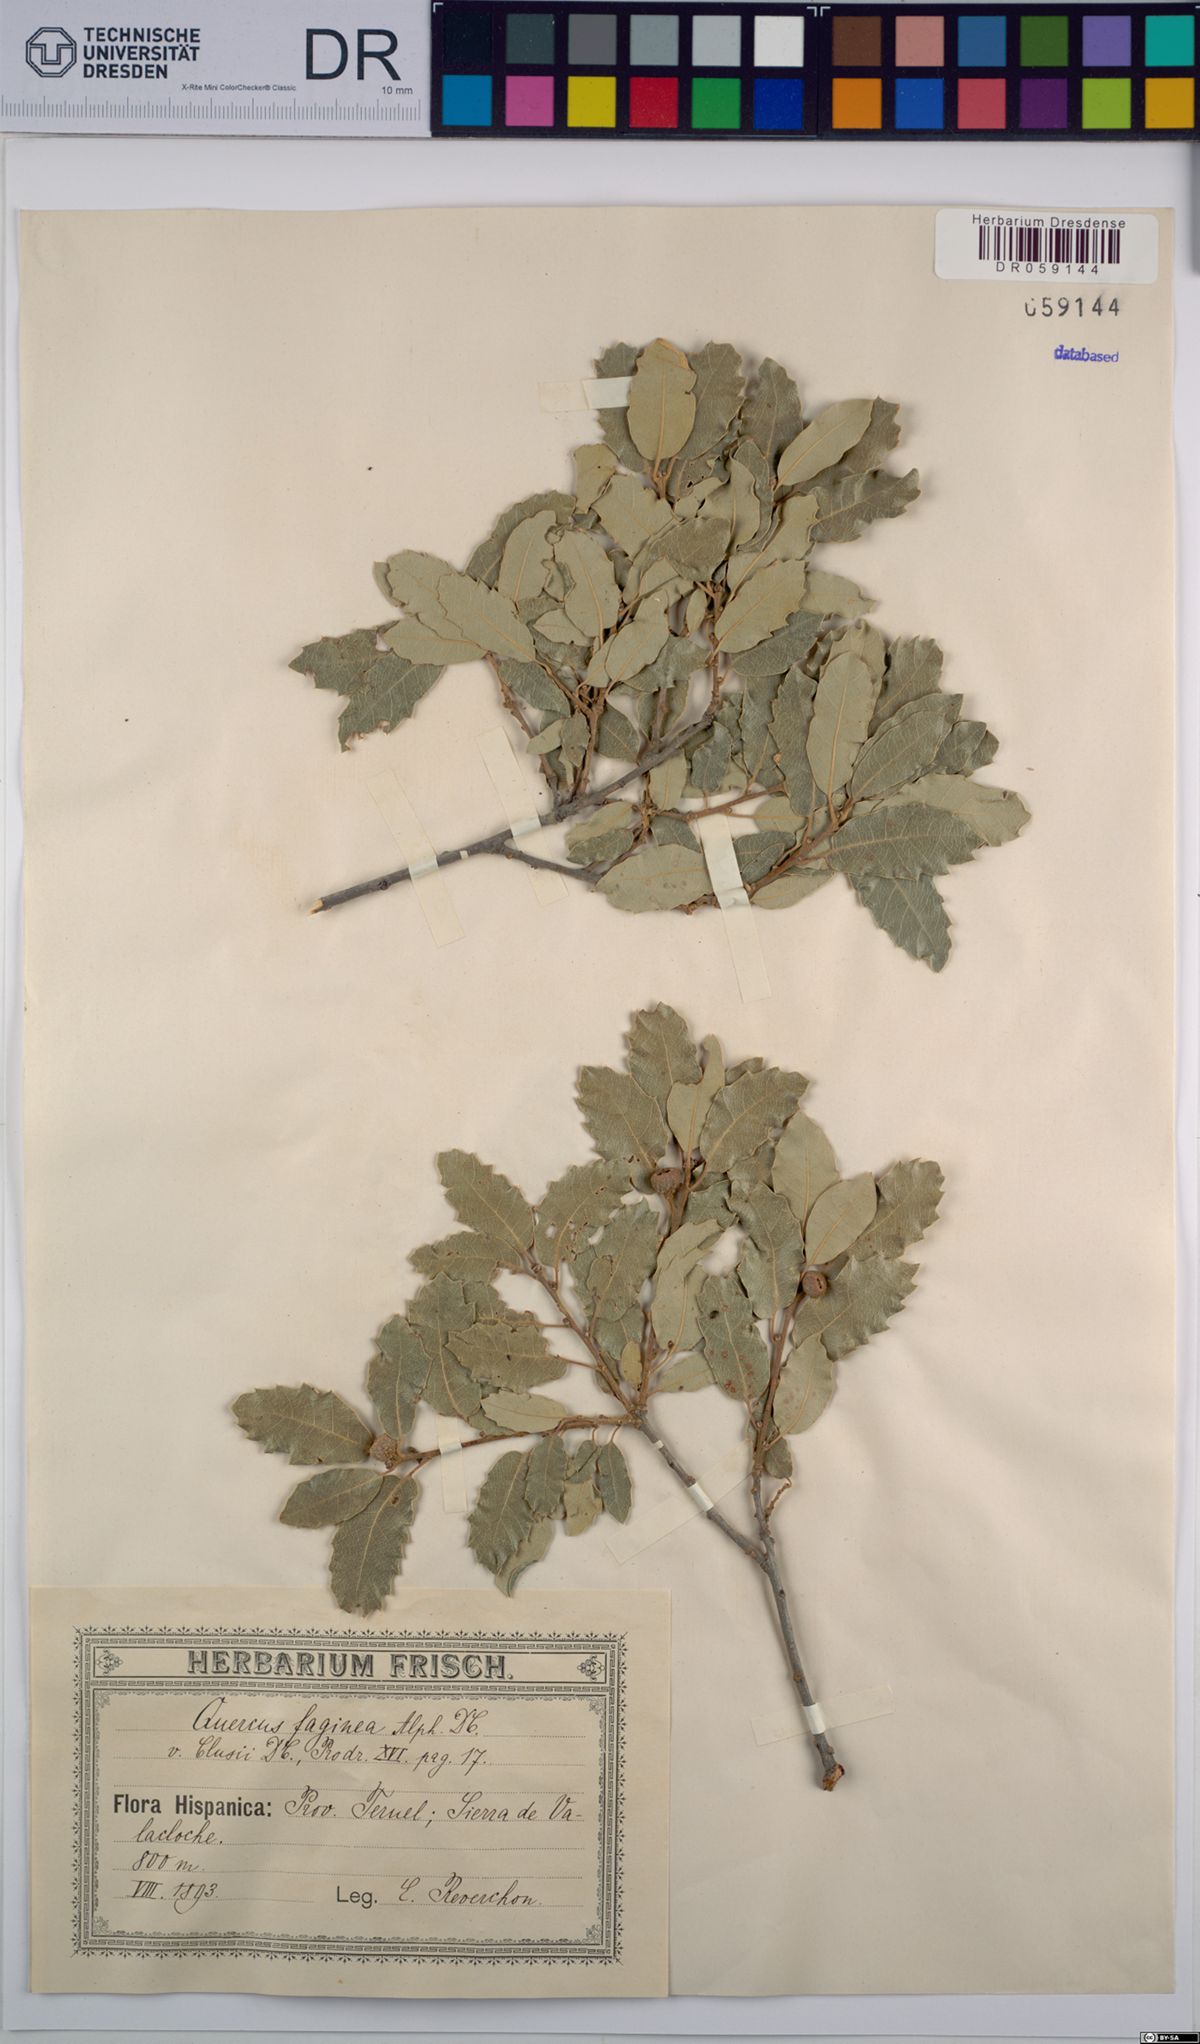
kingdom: Plantae
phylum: Tracheophyta
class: Magnoliopsida
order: Fagales
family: Fagaceae
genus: Quercus
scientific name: Quercus faginea
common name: Gall oak tree
